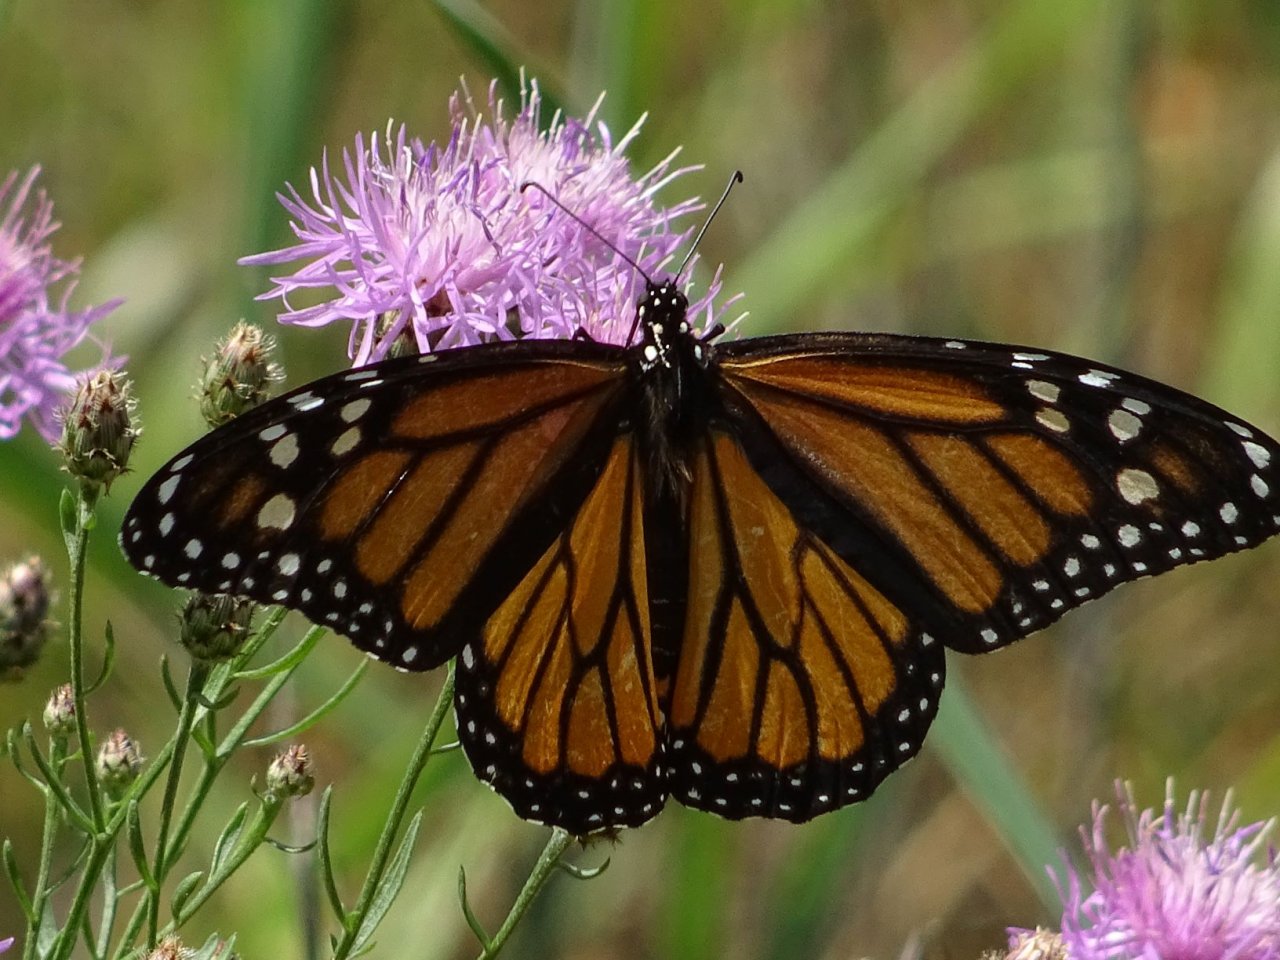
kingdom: Animalia
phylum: Arthropoda
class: Insecta
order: Lepidoptera
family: Nymphalidae
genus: Danaus
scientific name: Danaus plexippus
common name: Monarch
